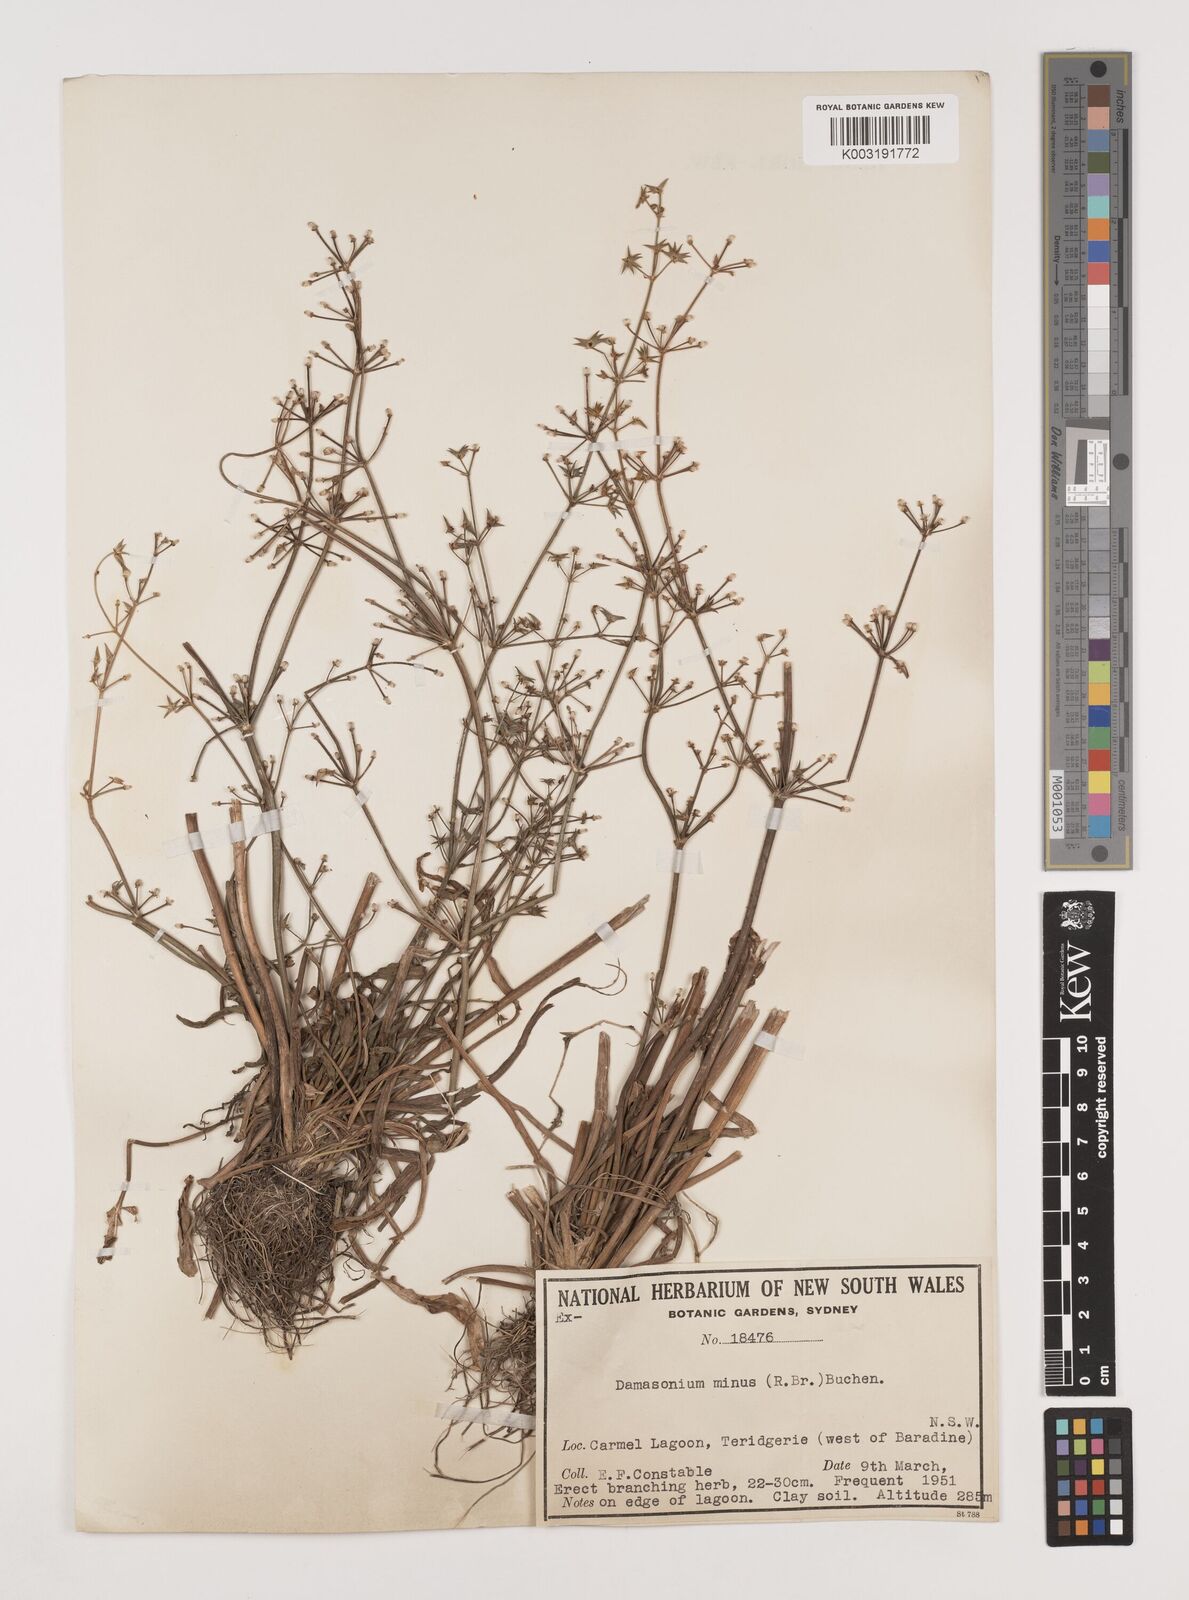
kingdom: Plantae
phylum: Tracheophyta
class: Liliopsida
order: Alismatales
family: Alismataceae
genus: Damasonium
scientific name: Damasonium minus
